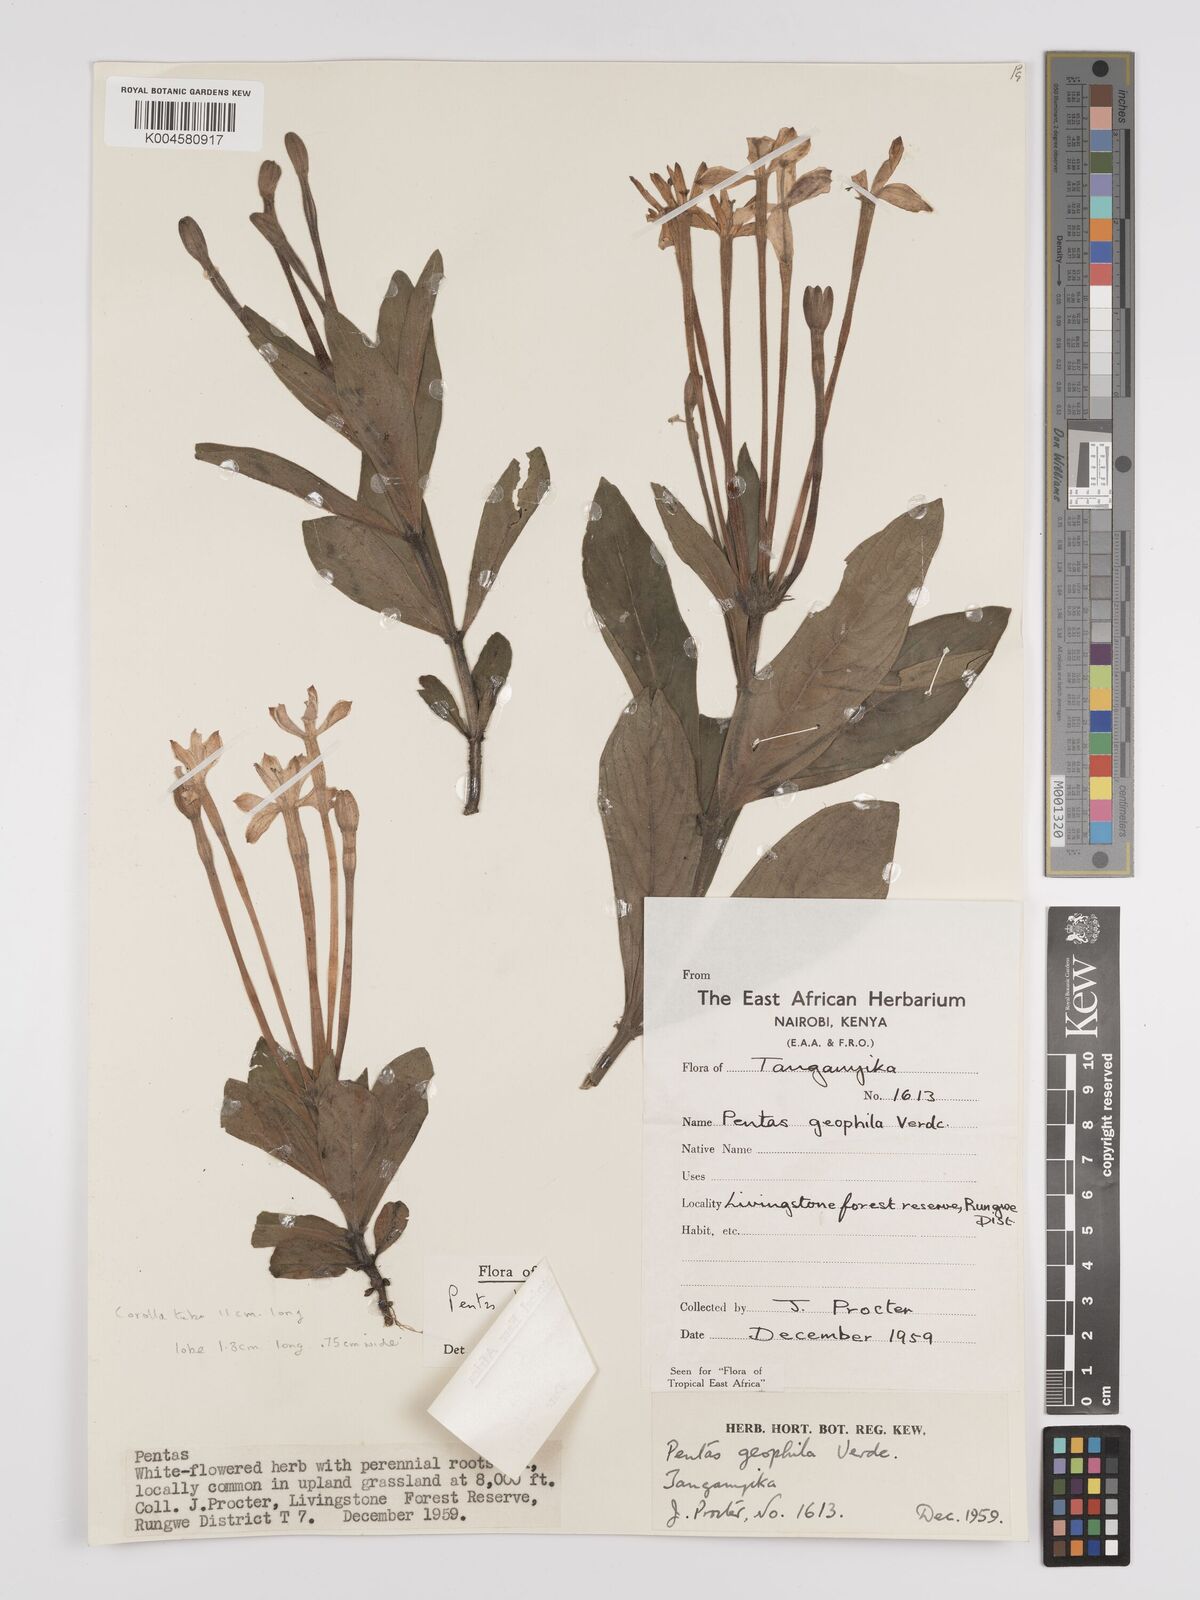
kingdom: Plantae
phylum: Tracheophyta
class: Magnoliopsida
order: Gentianales
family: Rubiaceae
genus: Dolichopentas
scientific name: Dolichopentas lindenioides
